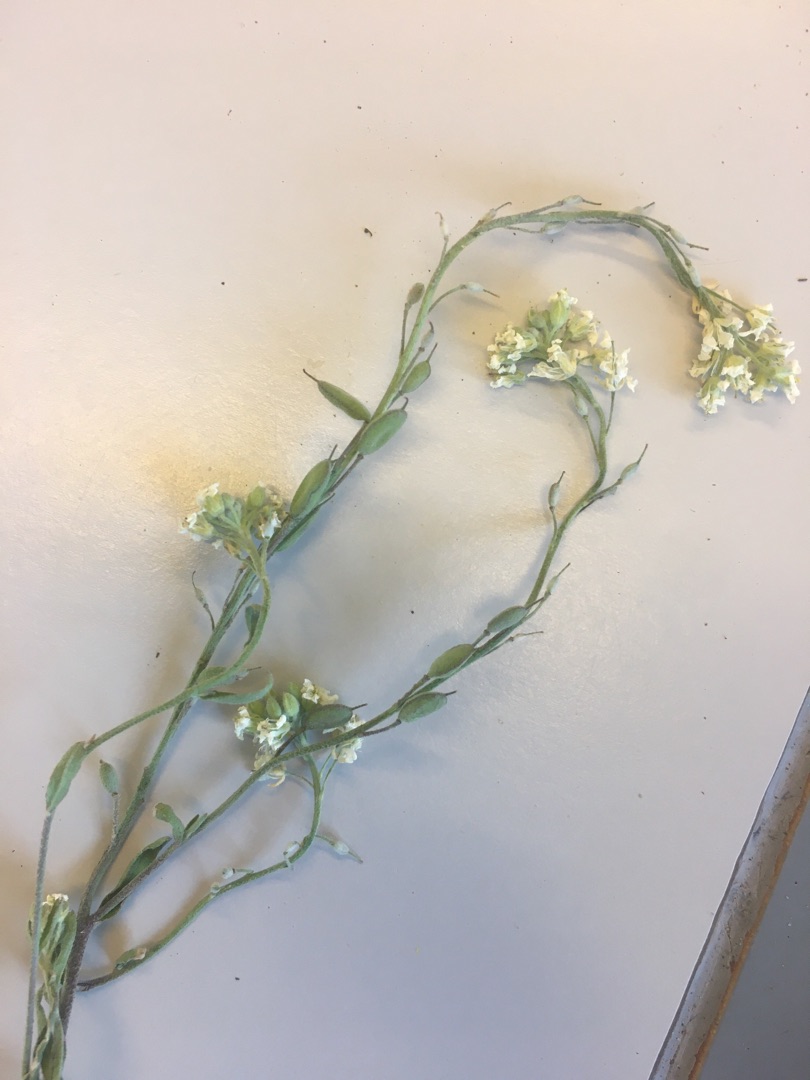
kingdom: Plantae
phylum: Tracheophyta
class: Magnoliopsida
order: Brassicales
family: Brassicaceae
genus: Berteroa
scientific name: Berteroa incana
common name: Kløvplade
